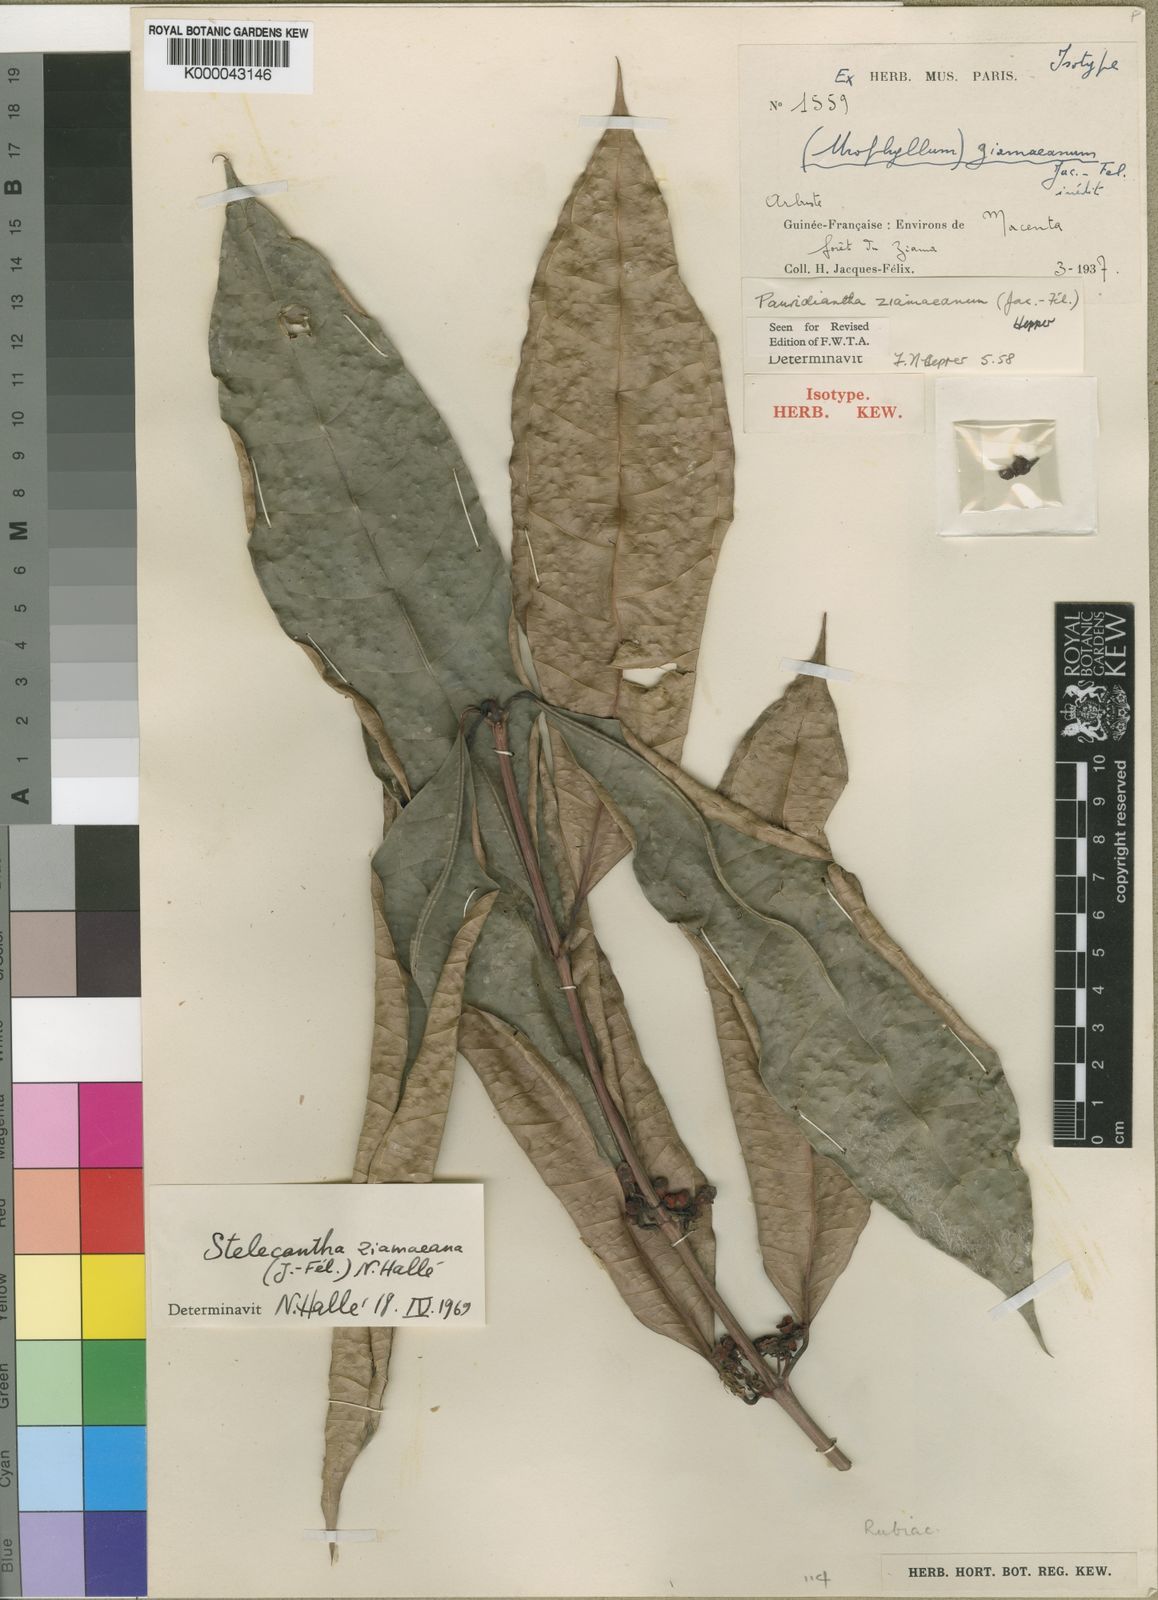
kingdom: Plantae
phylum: Tracheophyta
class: Magnoliopsida
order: Gentianales
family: Rubiaceae
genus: Pauridiantha
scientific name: Pauridiantha
